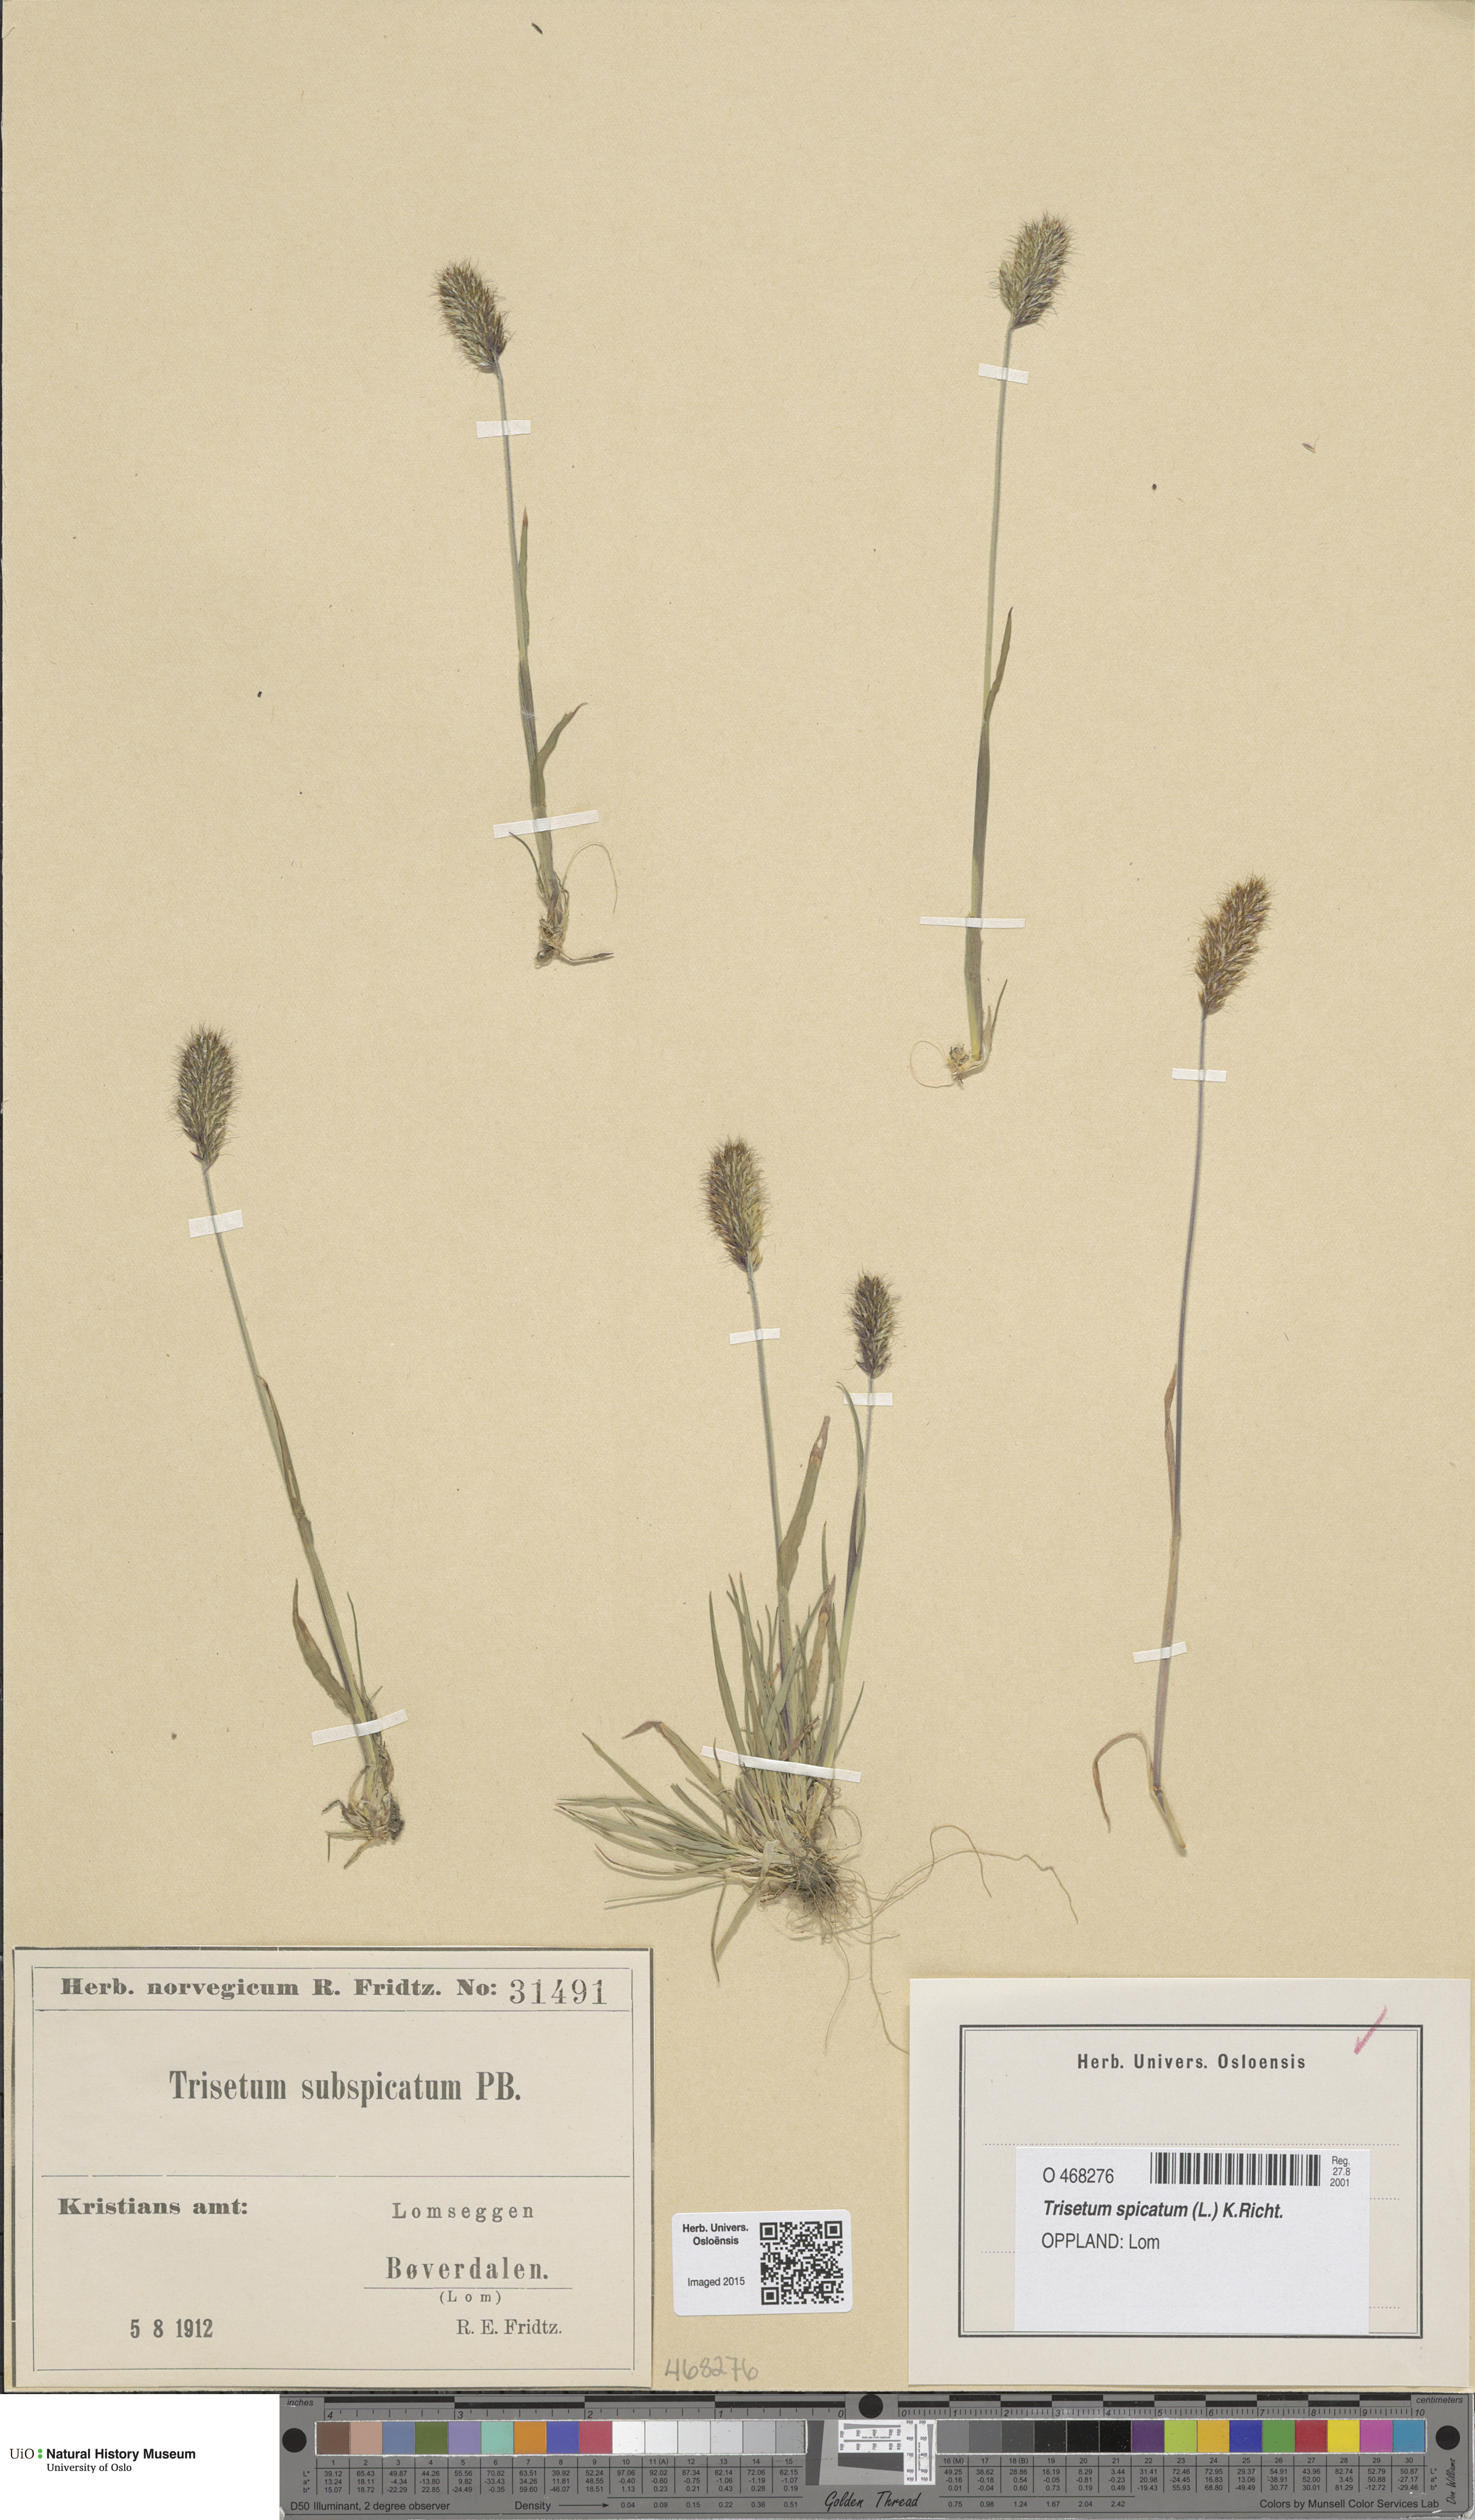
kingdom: Plantae
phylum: Tracheophyta
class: Liliopsida
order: Poales
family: Poaceae
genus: Koeleria
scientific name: Koeleria spicata
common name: Mountain trisetum
